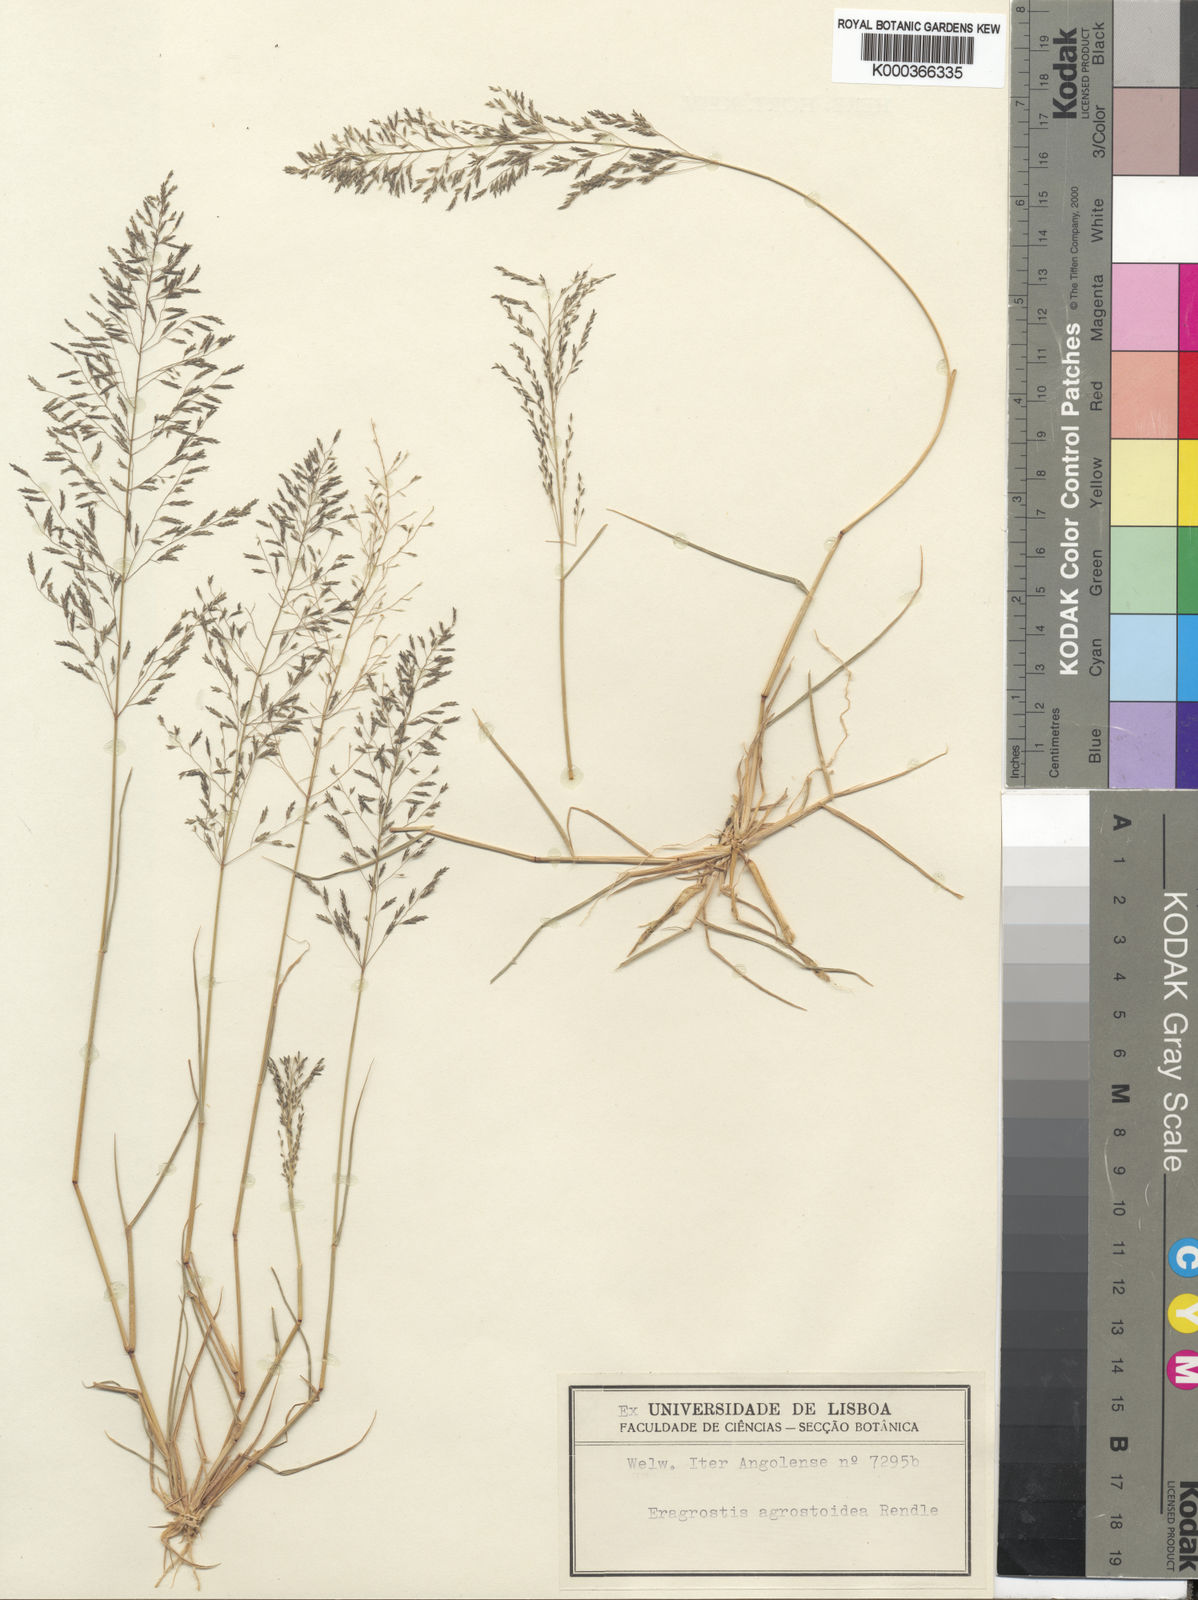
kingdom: Plantae
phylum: Tracheophyta
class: Liliopsida
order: Poales
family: Poaceae
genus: Eragrostis
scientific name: Eragrostis cylindriflora
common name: Cylinderflower lovegrass
